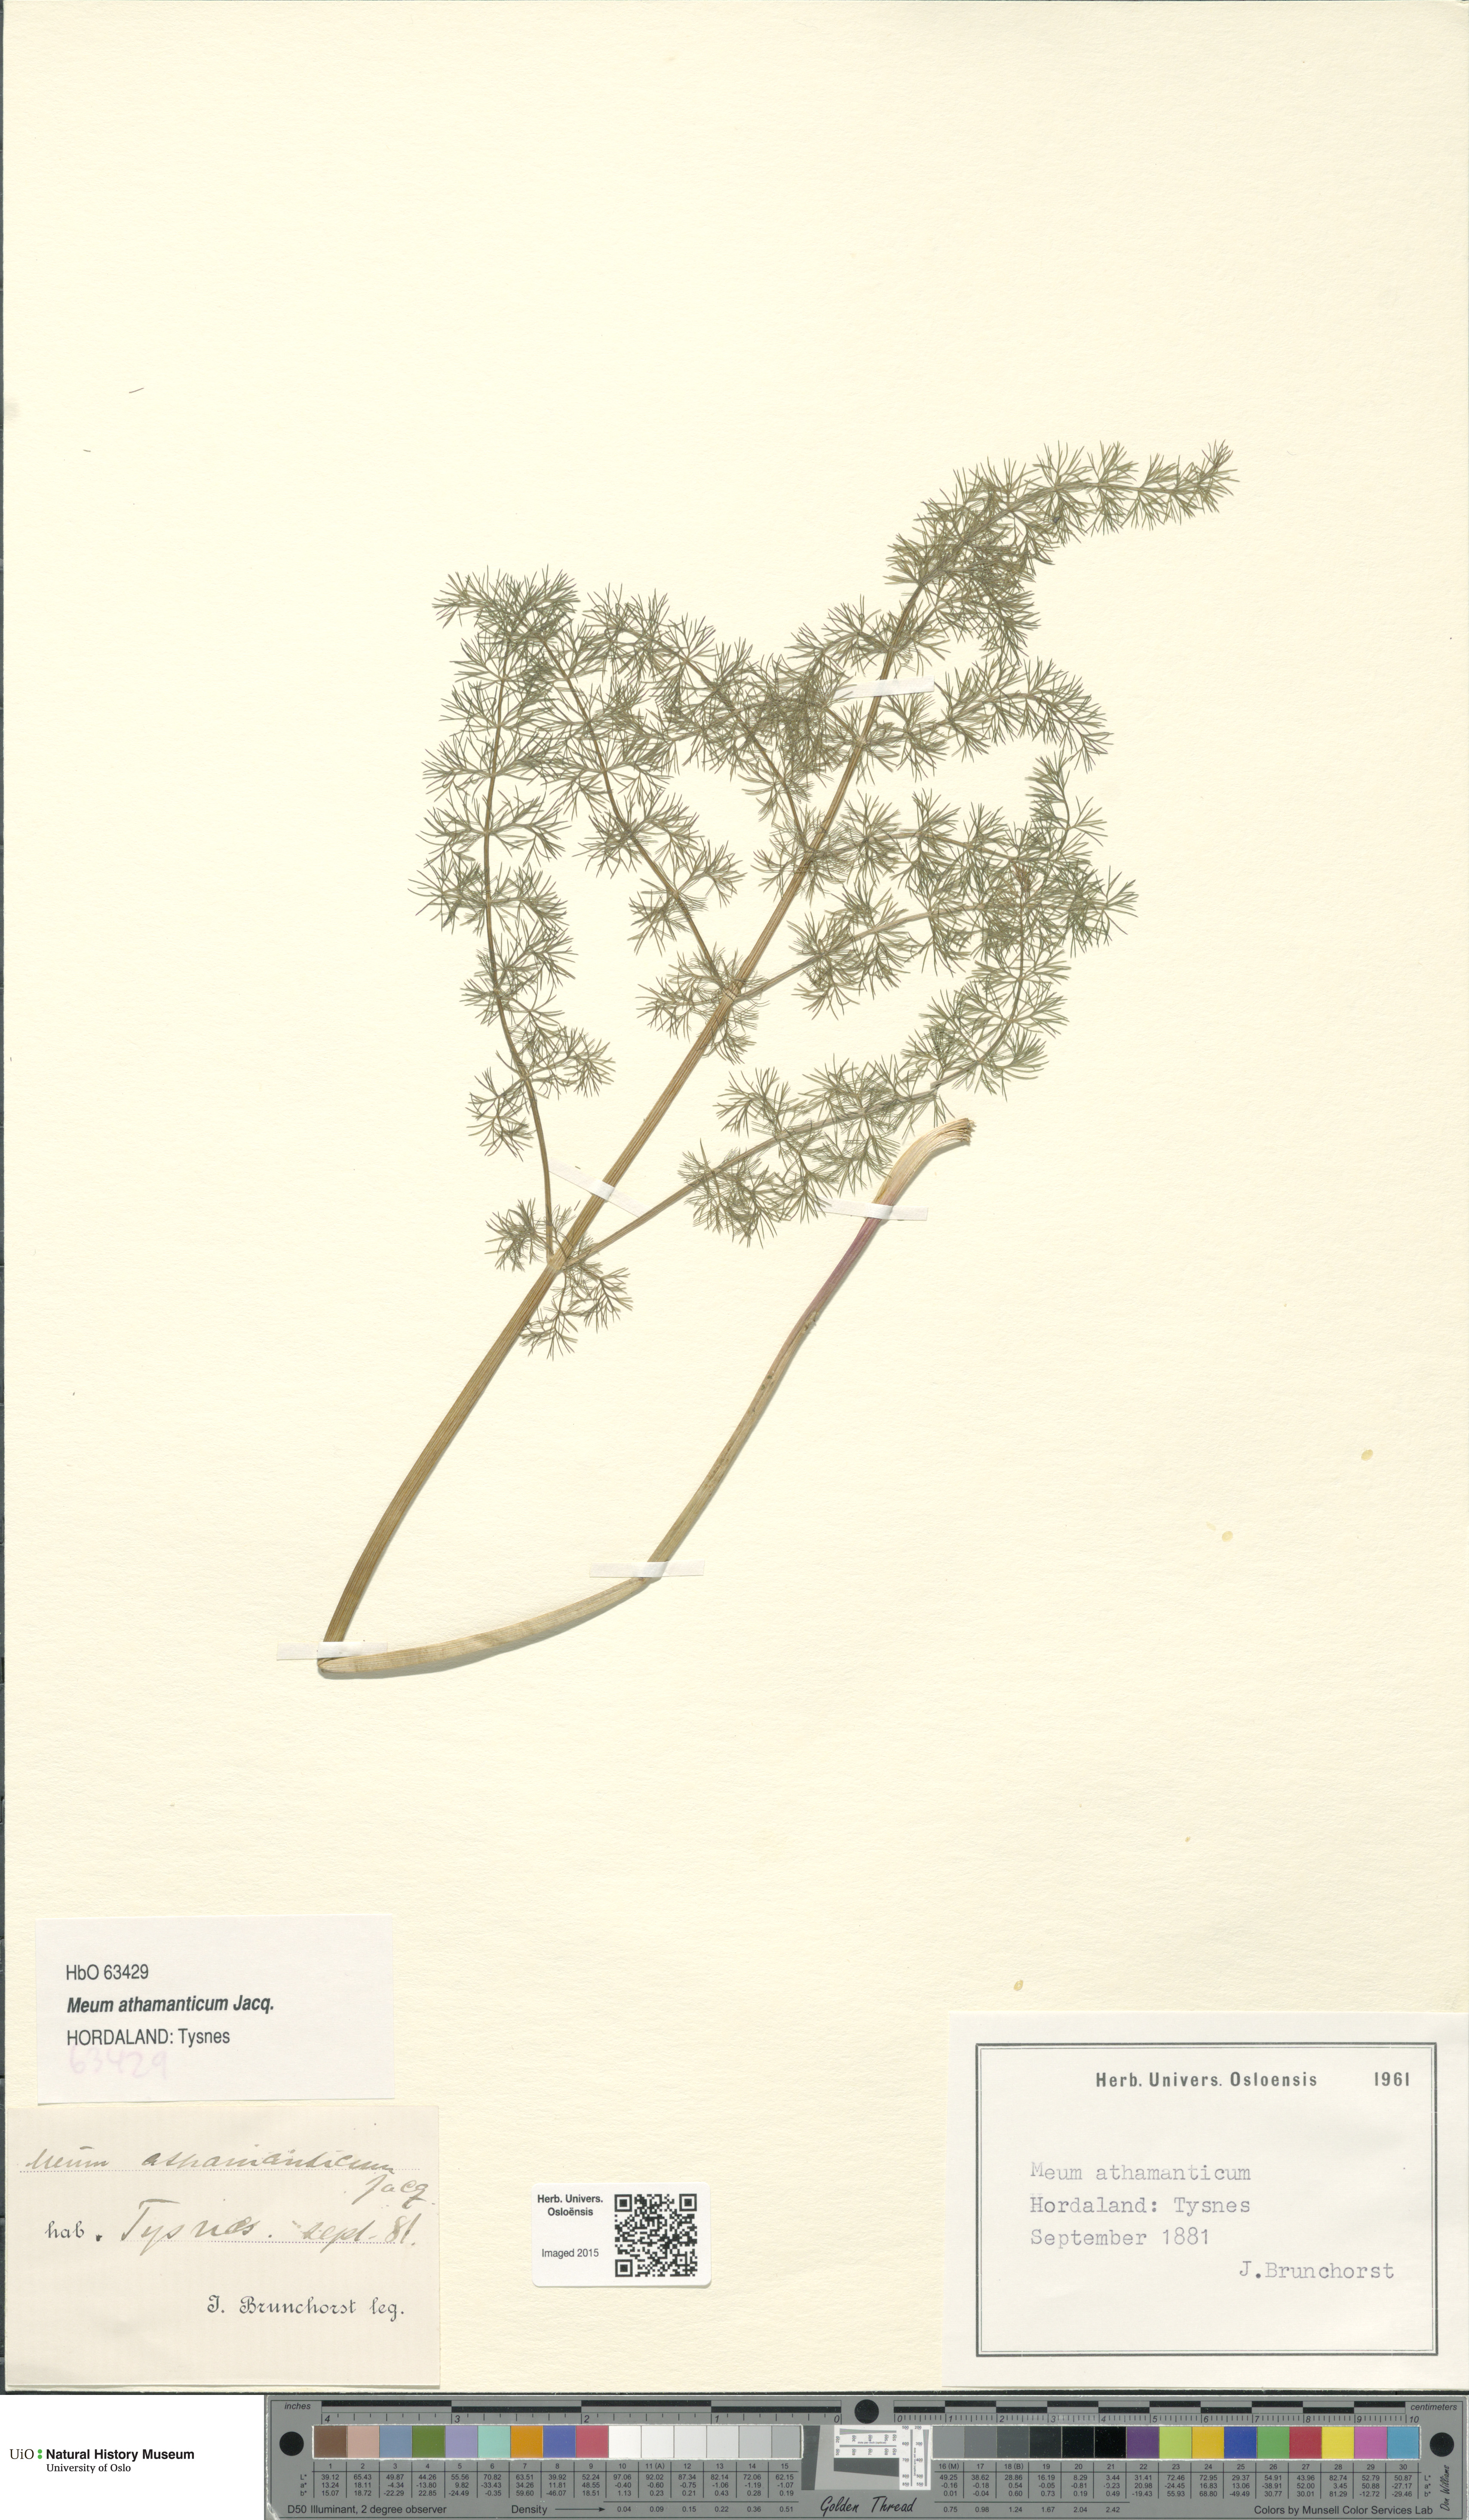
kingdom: Plantae
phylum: Tracheophyta
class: Magnoliopsida
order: Apiales
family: Apiaceae
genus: Meum
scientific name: Meum athamanticum
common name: Spignel
